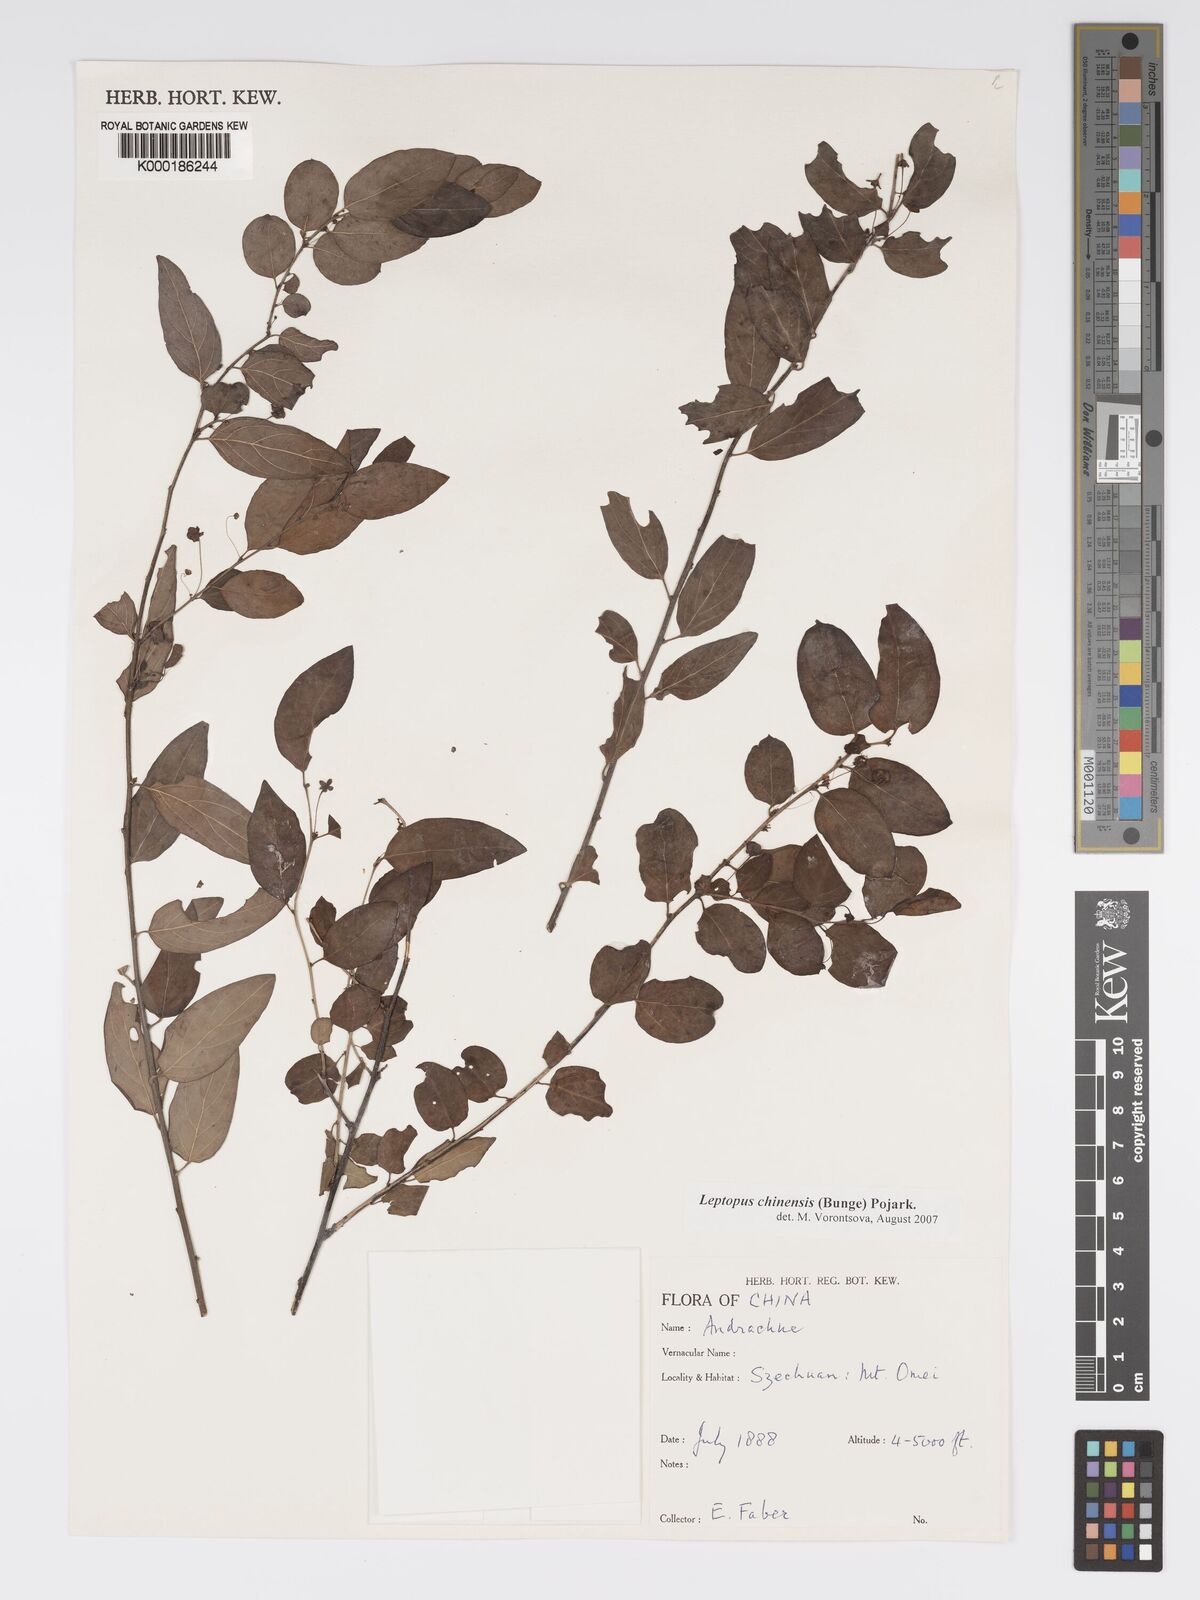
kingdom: Plantae
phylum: Tracheophyta
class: Magnoliopsida
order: Malpighiales
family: Phyllanthaceae
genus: Leptopus
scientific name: Leptopus chinensis
